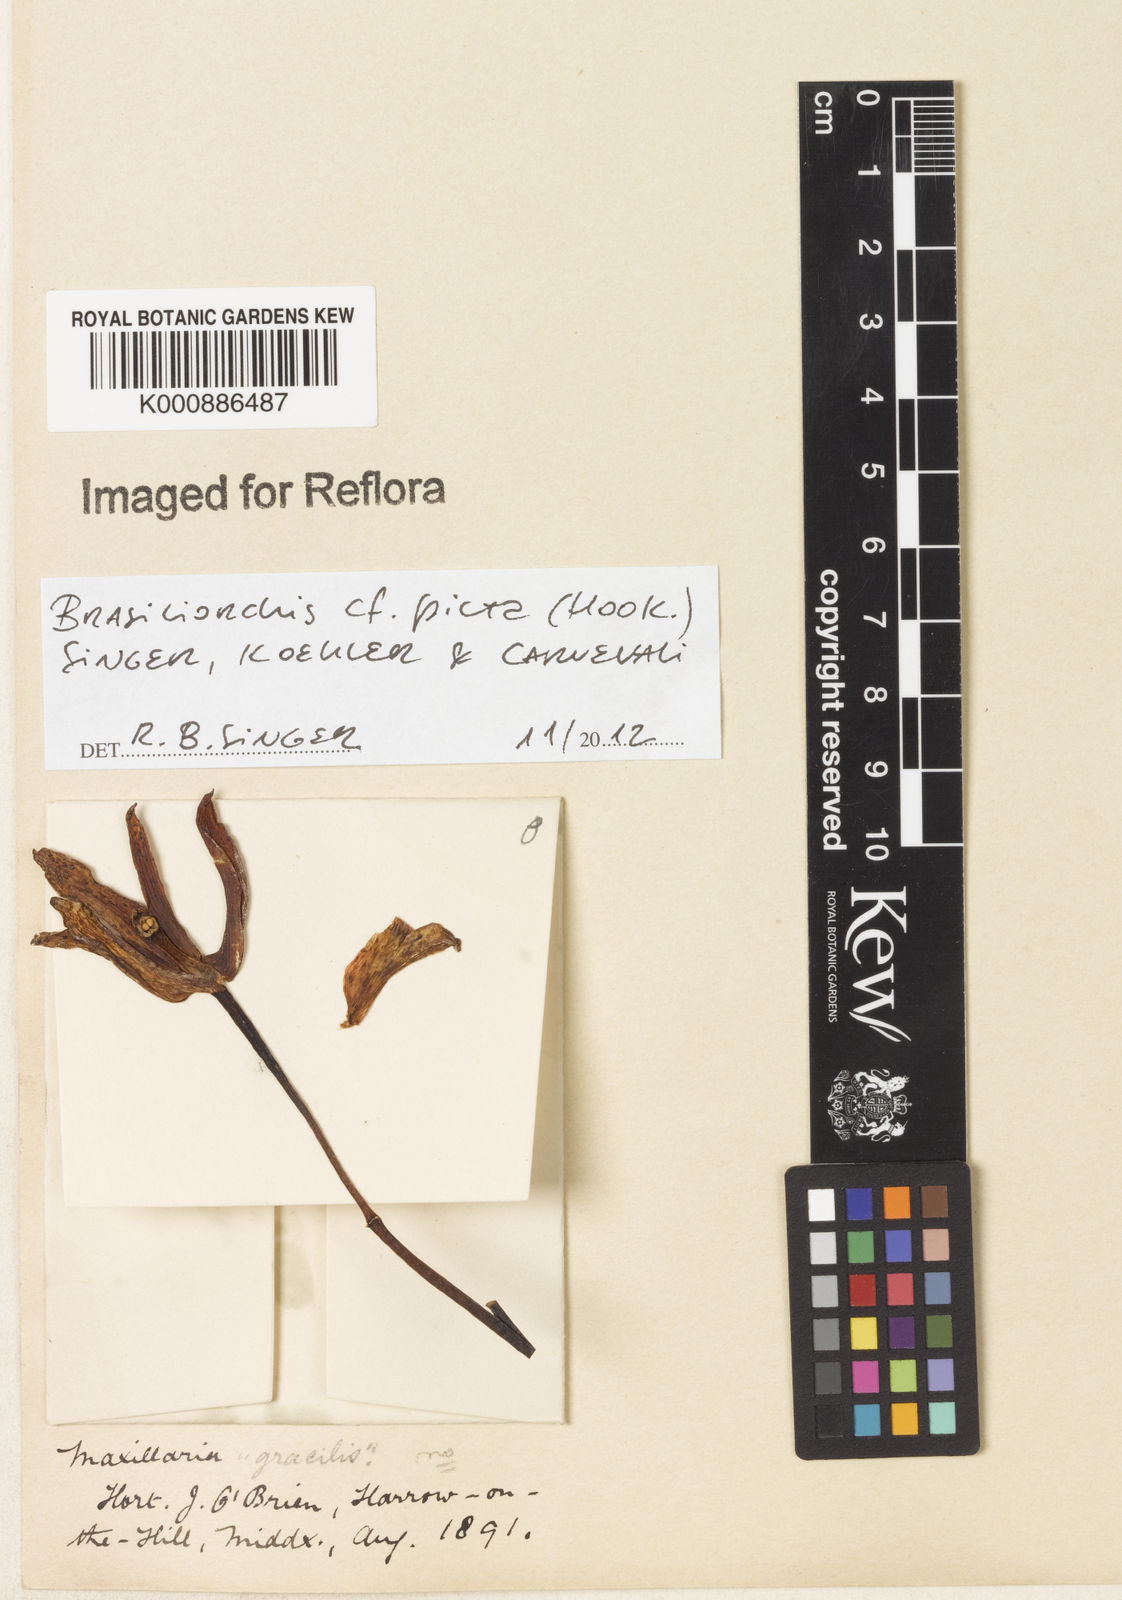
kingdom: Plantae
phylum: Tracheophyta
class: Liliopsida
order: Asparagales
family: Orchidaceae
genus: Maxillaria
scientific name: Maxillaria picta
